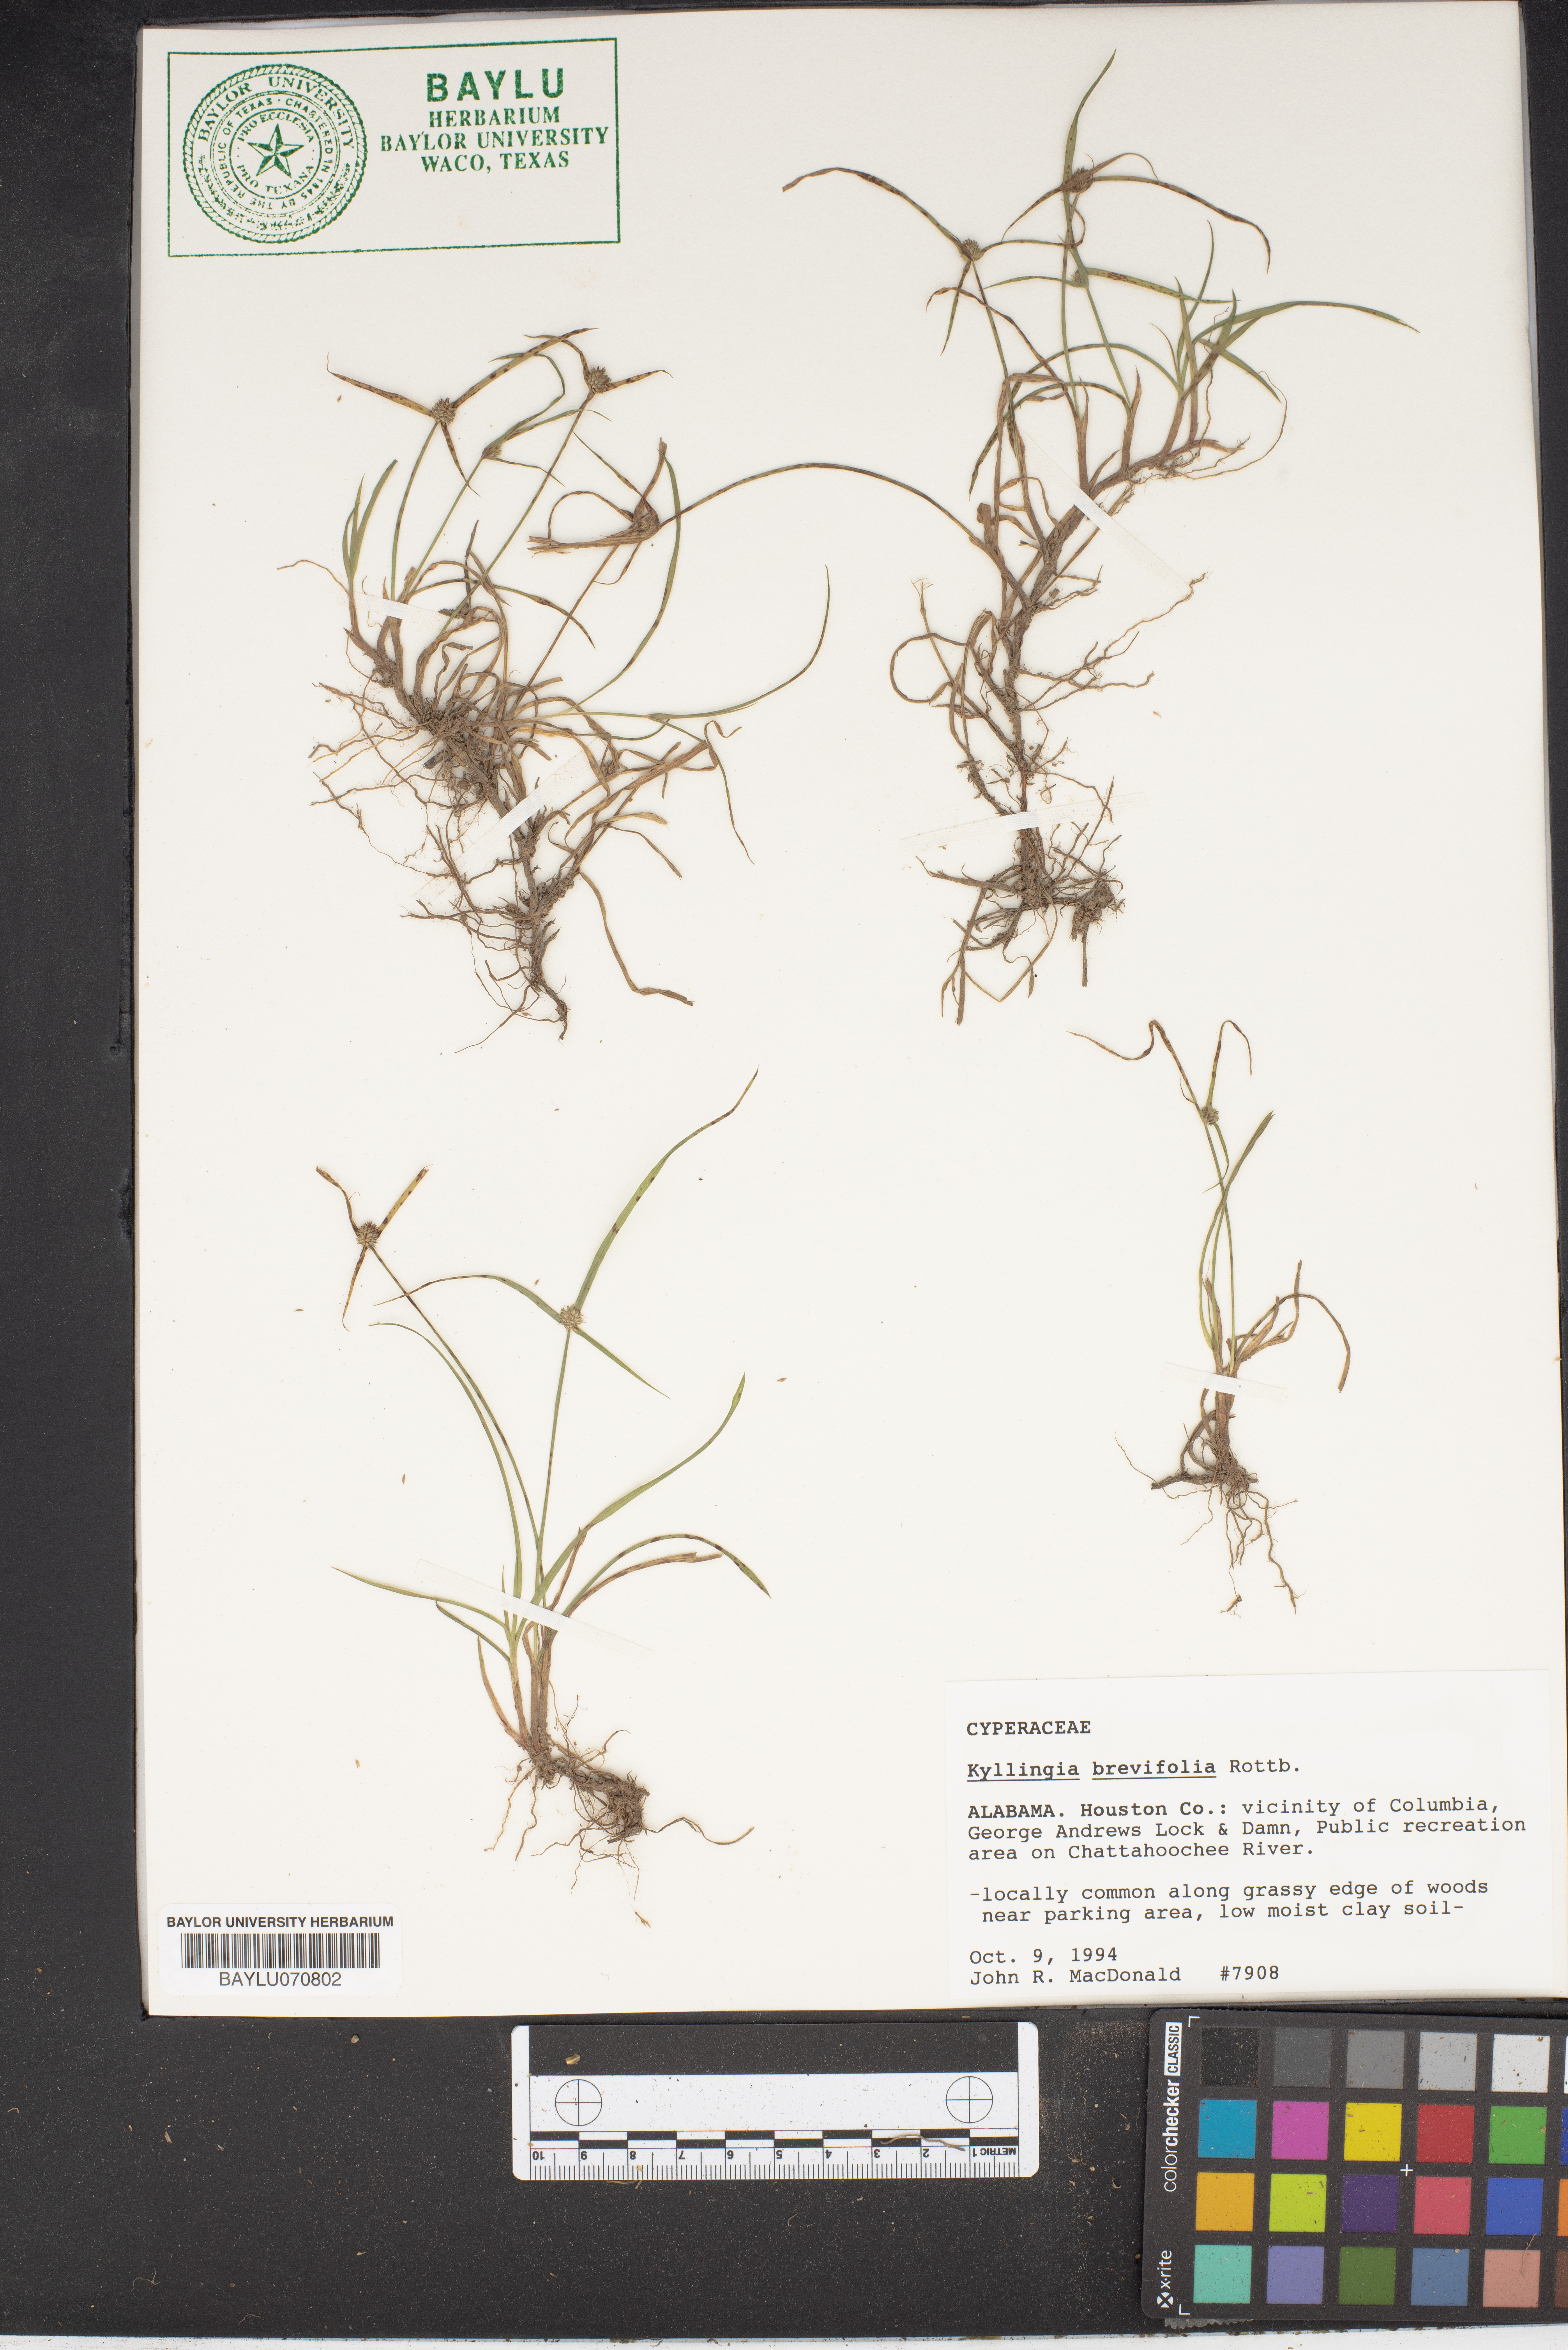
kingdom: Plantae
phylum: Tracheophyta
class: Liliopsida
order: Poales
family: Cyperaceae
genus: Cyperus
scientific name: Cyperus brevifolius
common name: Globe kyllinga
